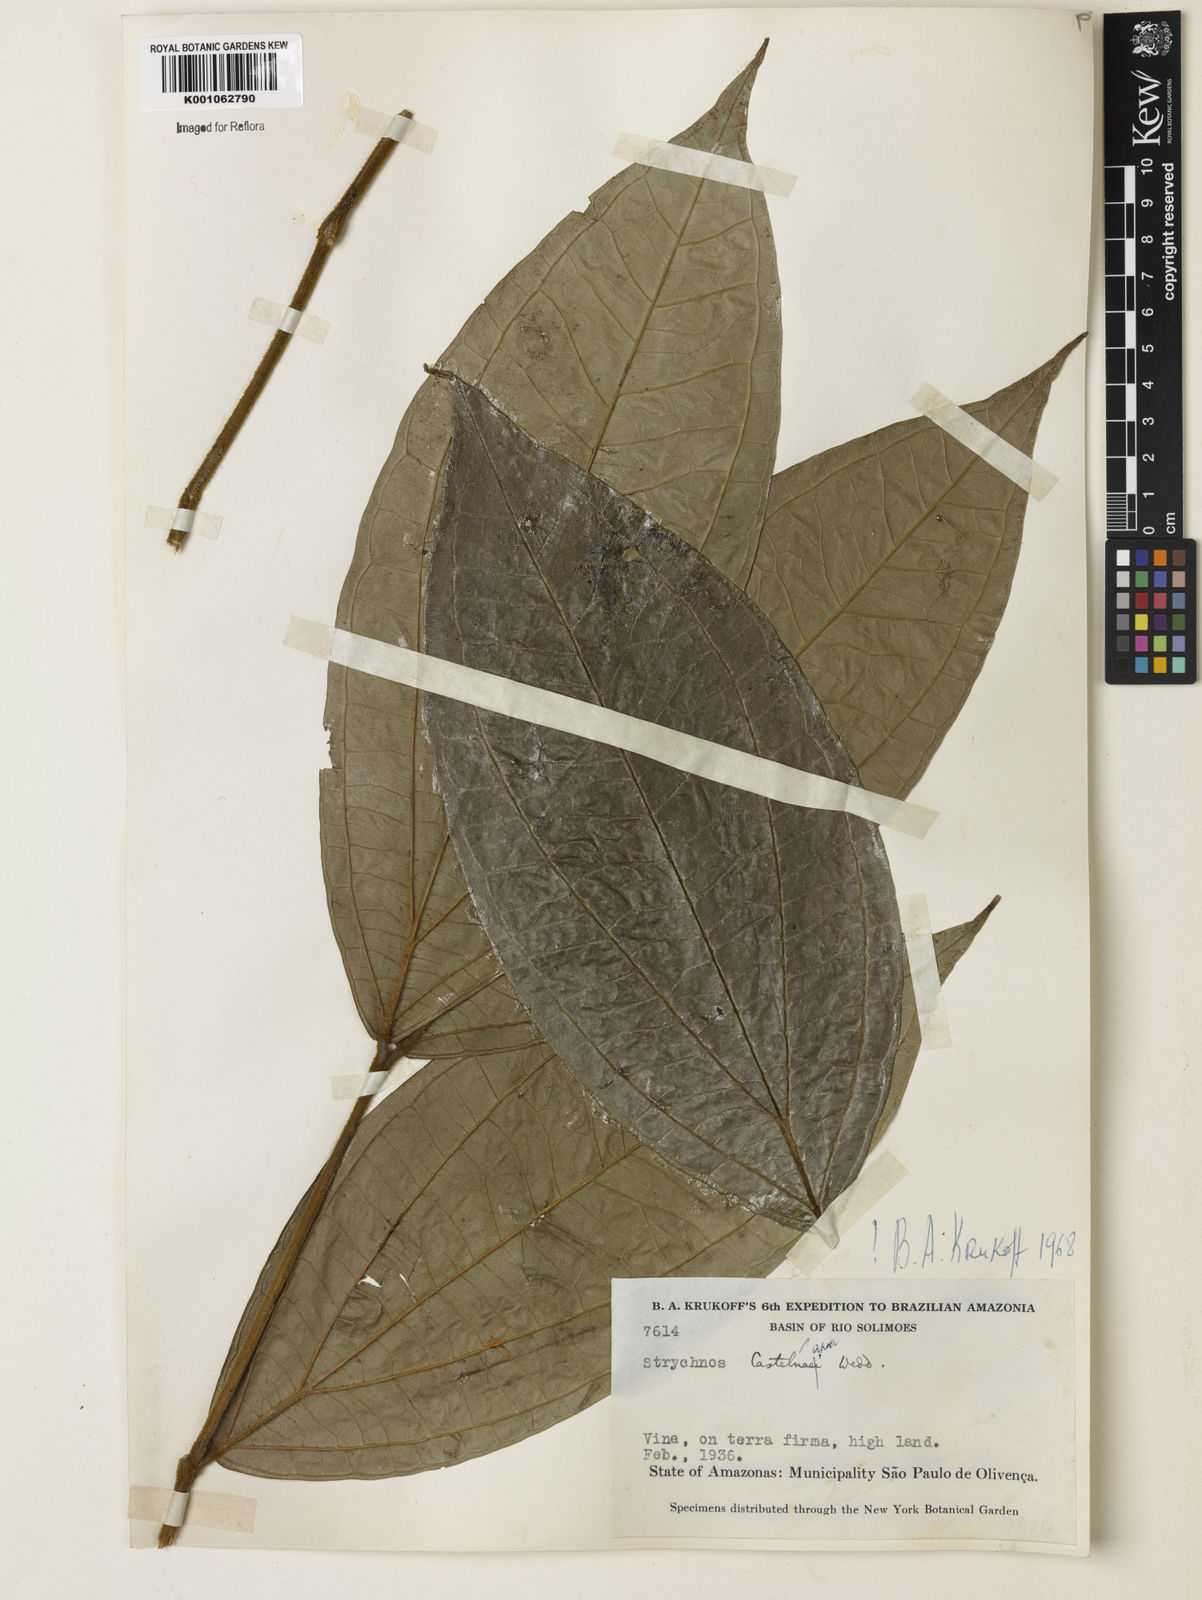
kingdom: Plantae
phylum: Tracheophyta
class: Magnoliopsida
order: Gentianales
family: Loganiaceae
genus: Strychnos
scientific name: Strychnos
